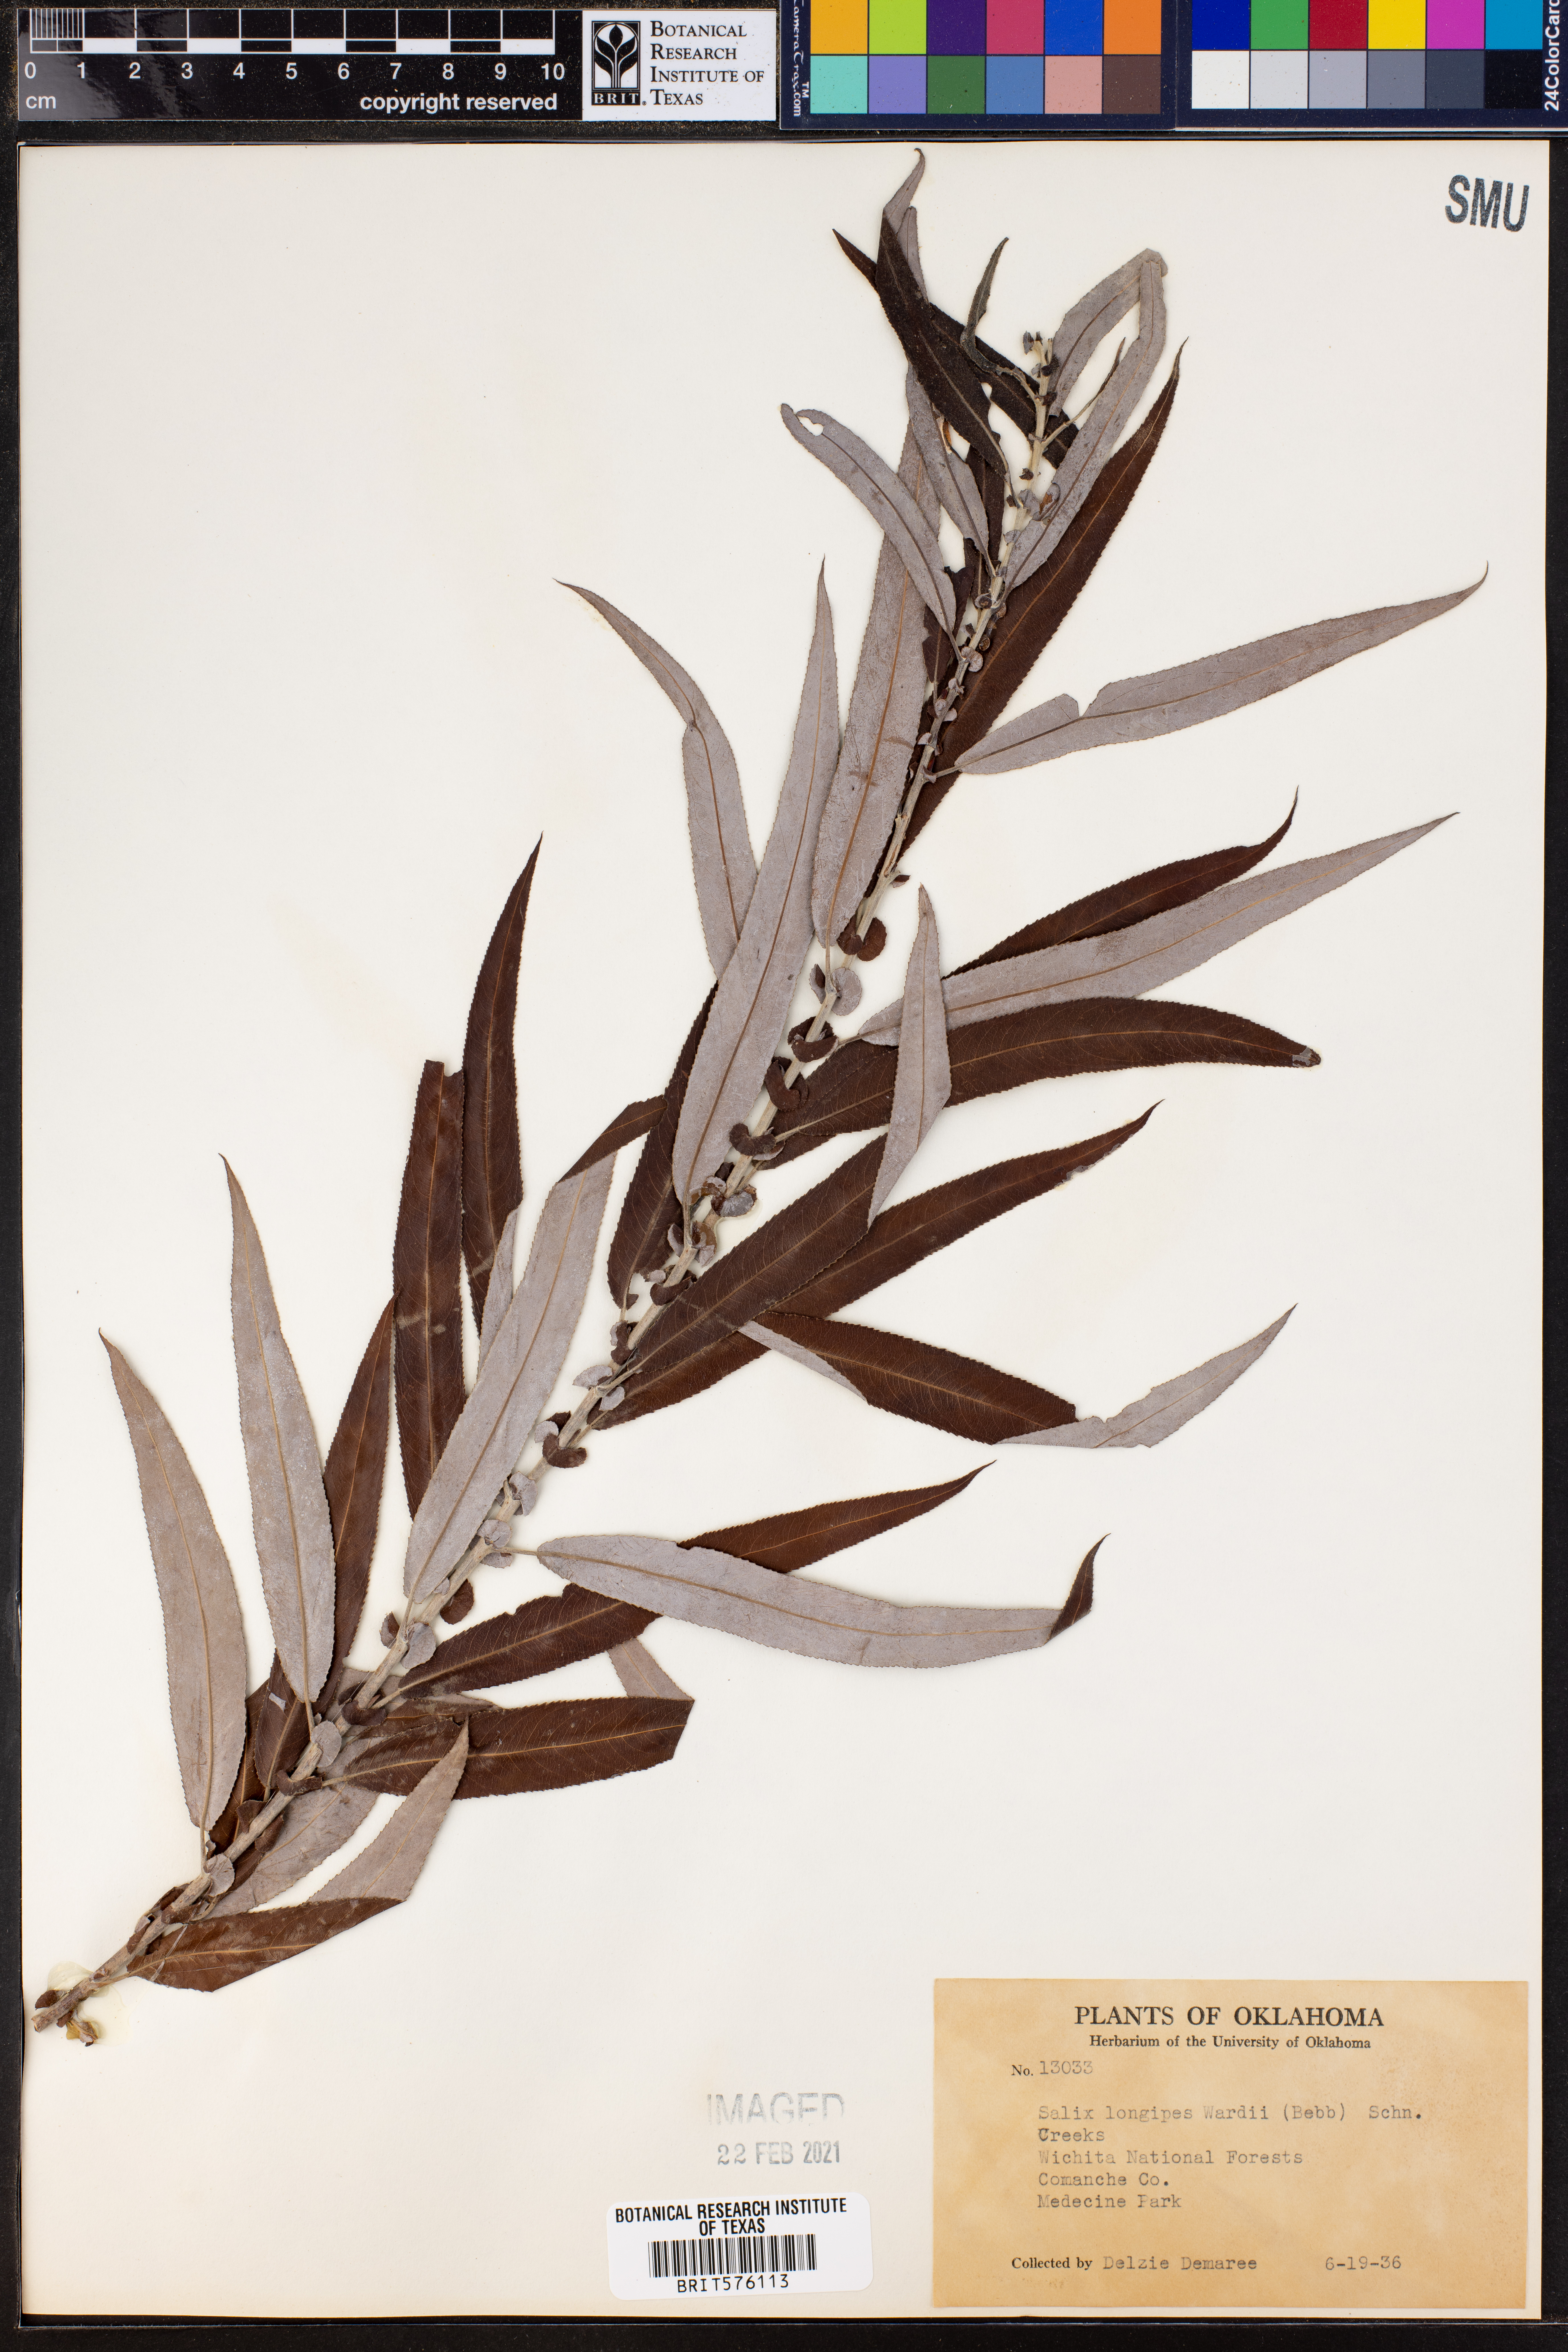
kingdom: Plantae
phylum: Tracheophyta
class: Magnoliopsida
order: Malpighiales
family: Salicaceae
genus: Salix
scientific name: Salix fruticulosa
